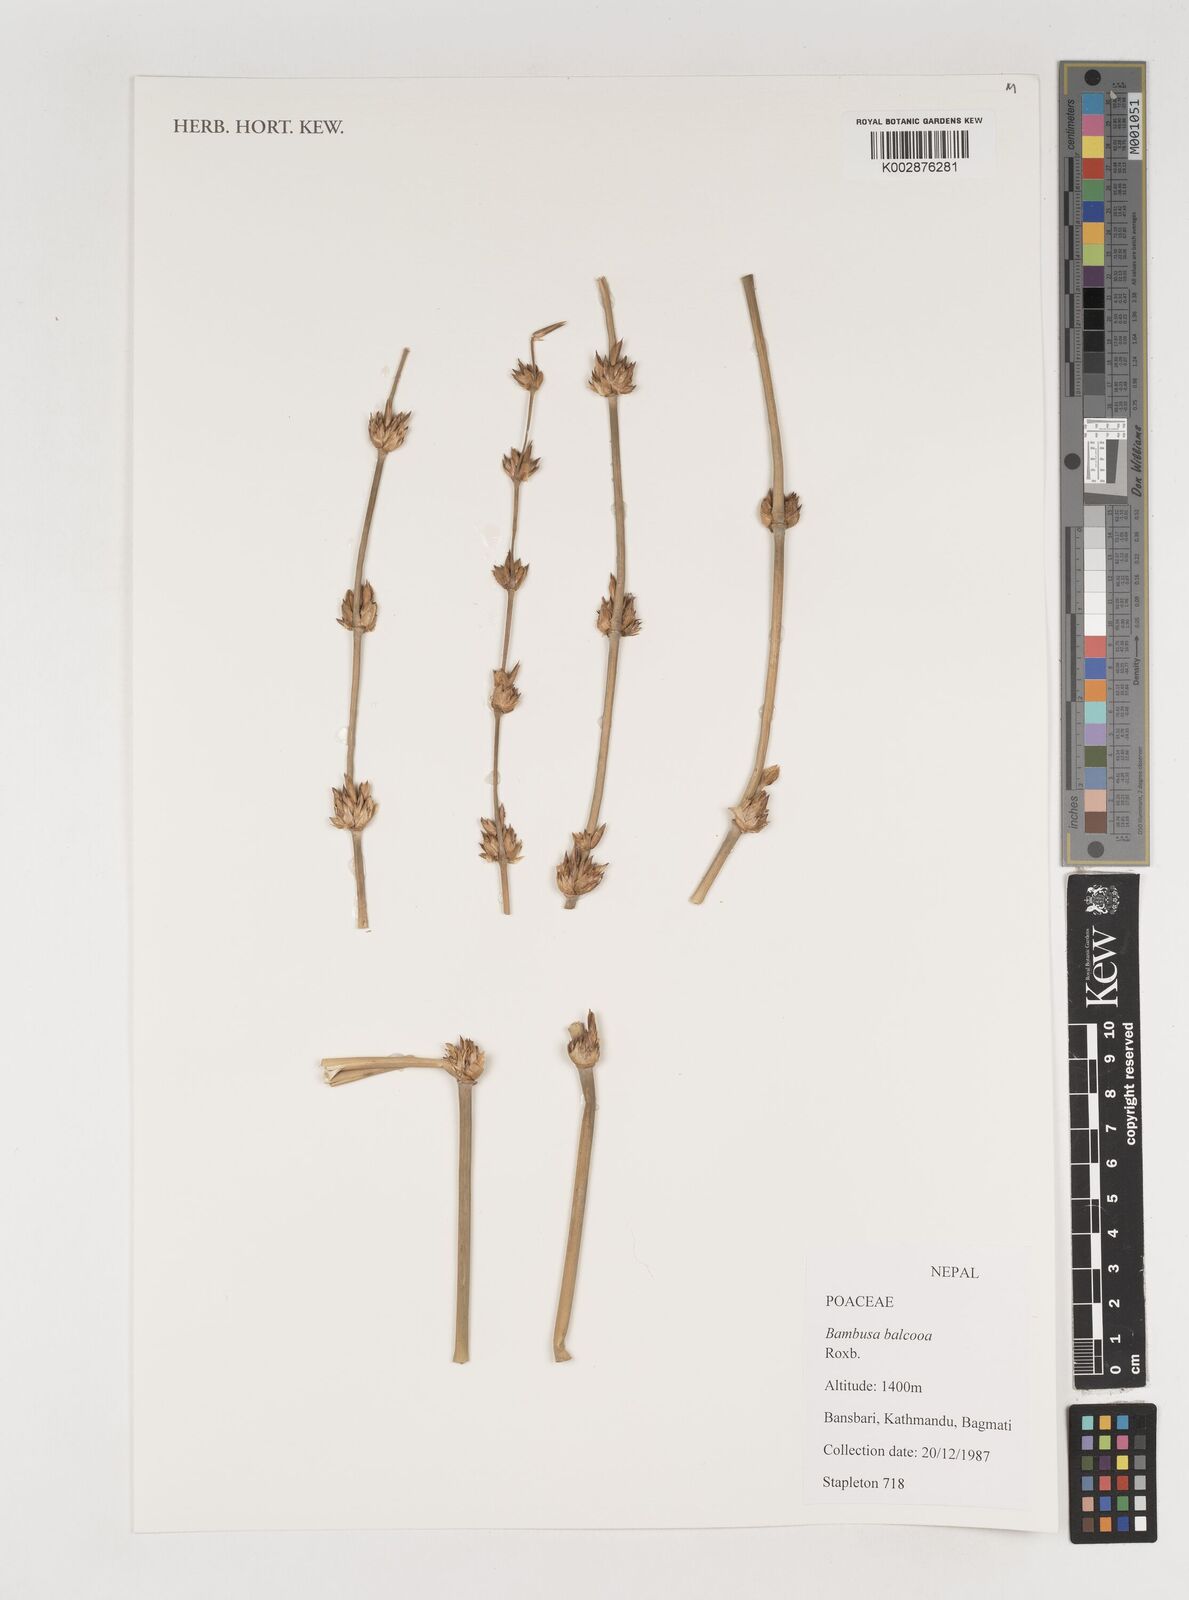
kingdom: Plantae
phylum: Tracheophyta
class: Liliopsida
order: Poales
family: Poaceae
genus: Bambusa
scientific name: Bambusa balcooa
